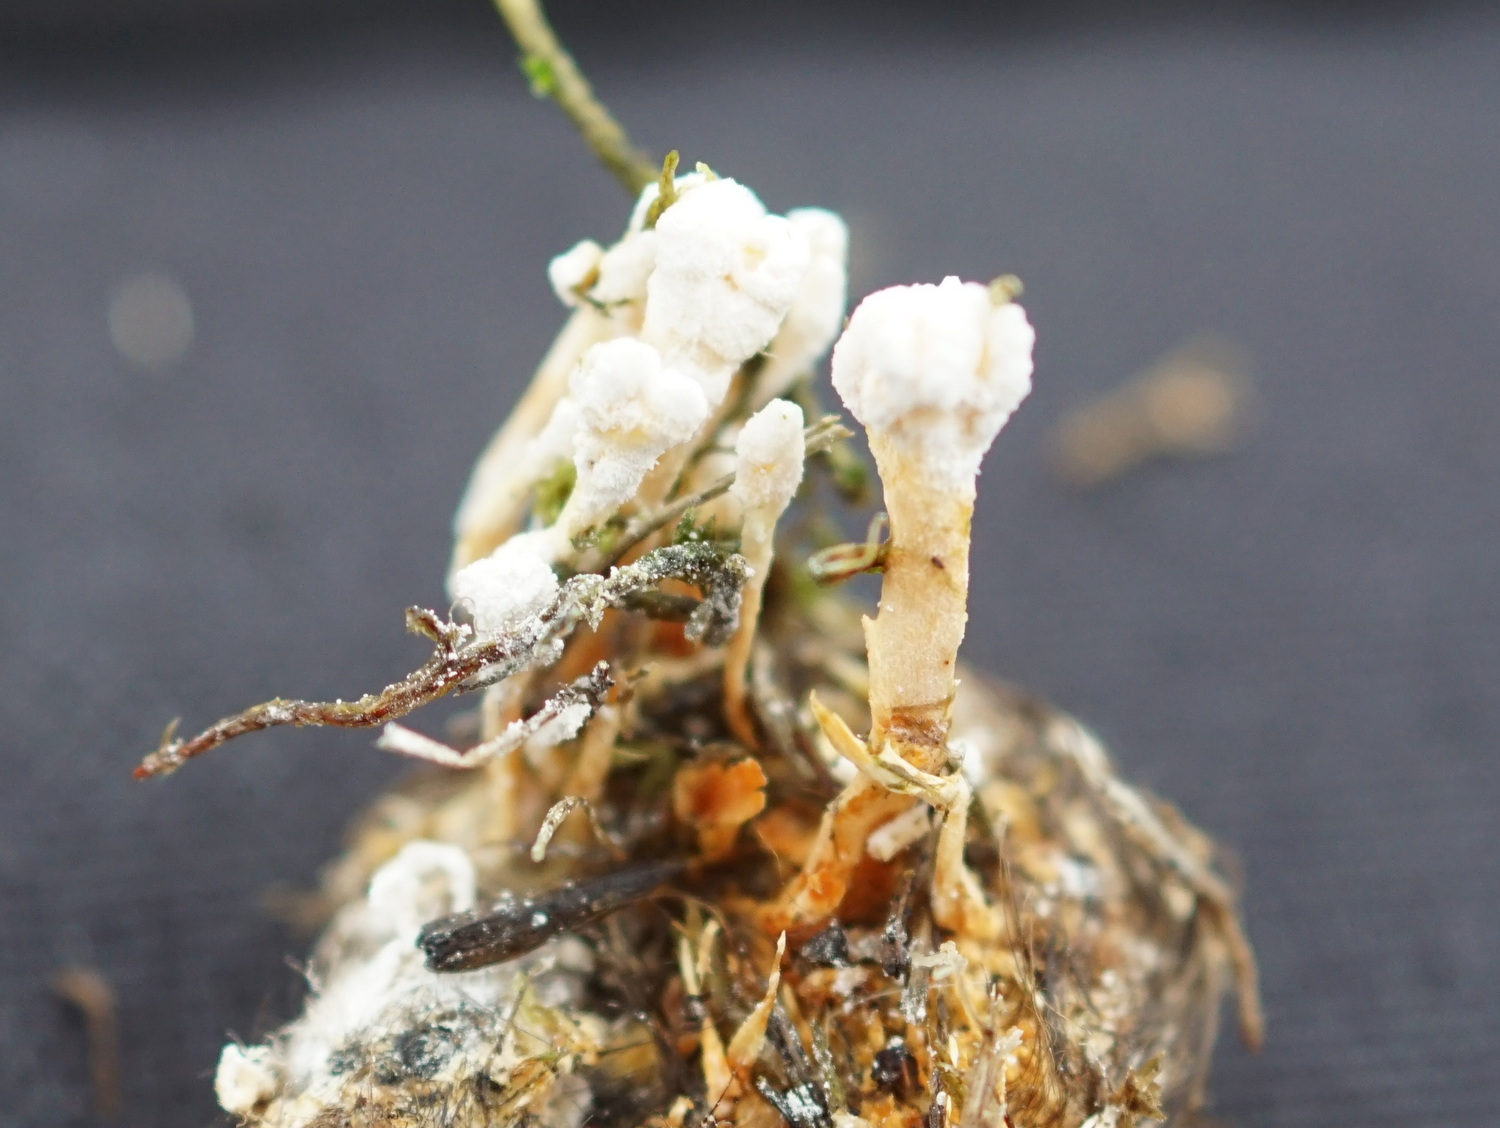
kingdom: Fungi
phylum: Ascomycota
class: Sordariomycetes
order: Hypocreales
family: Cordycipitaceae
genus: Cordyceps
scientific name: Cordyceps farinosa
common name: melet snyltekølle
